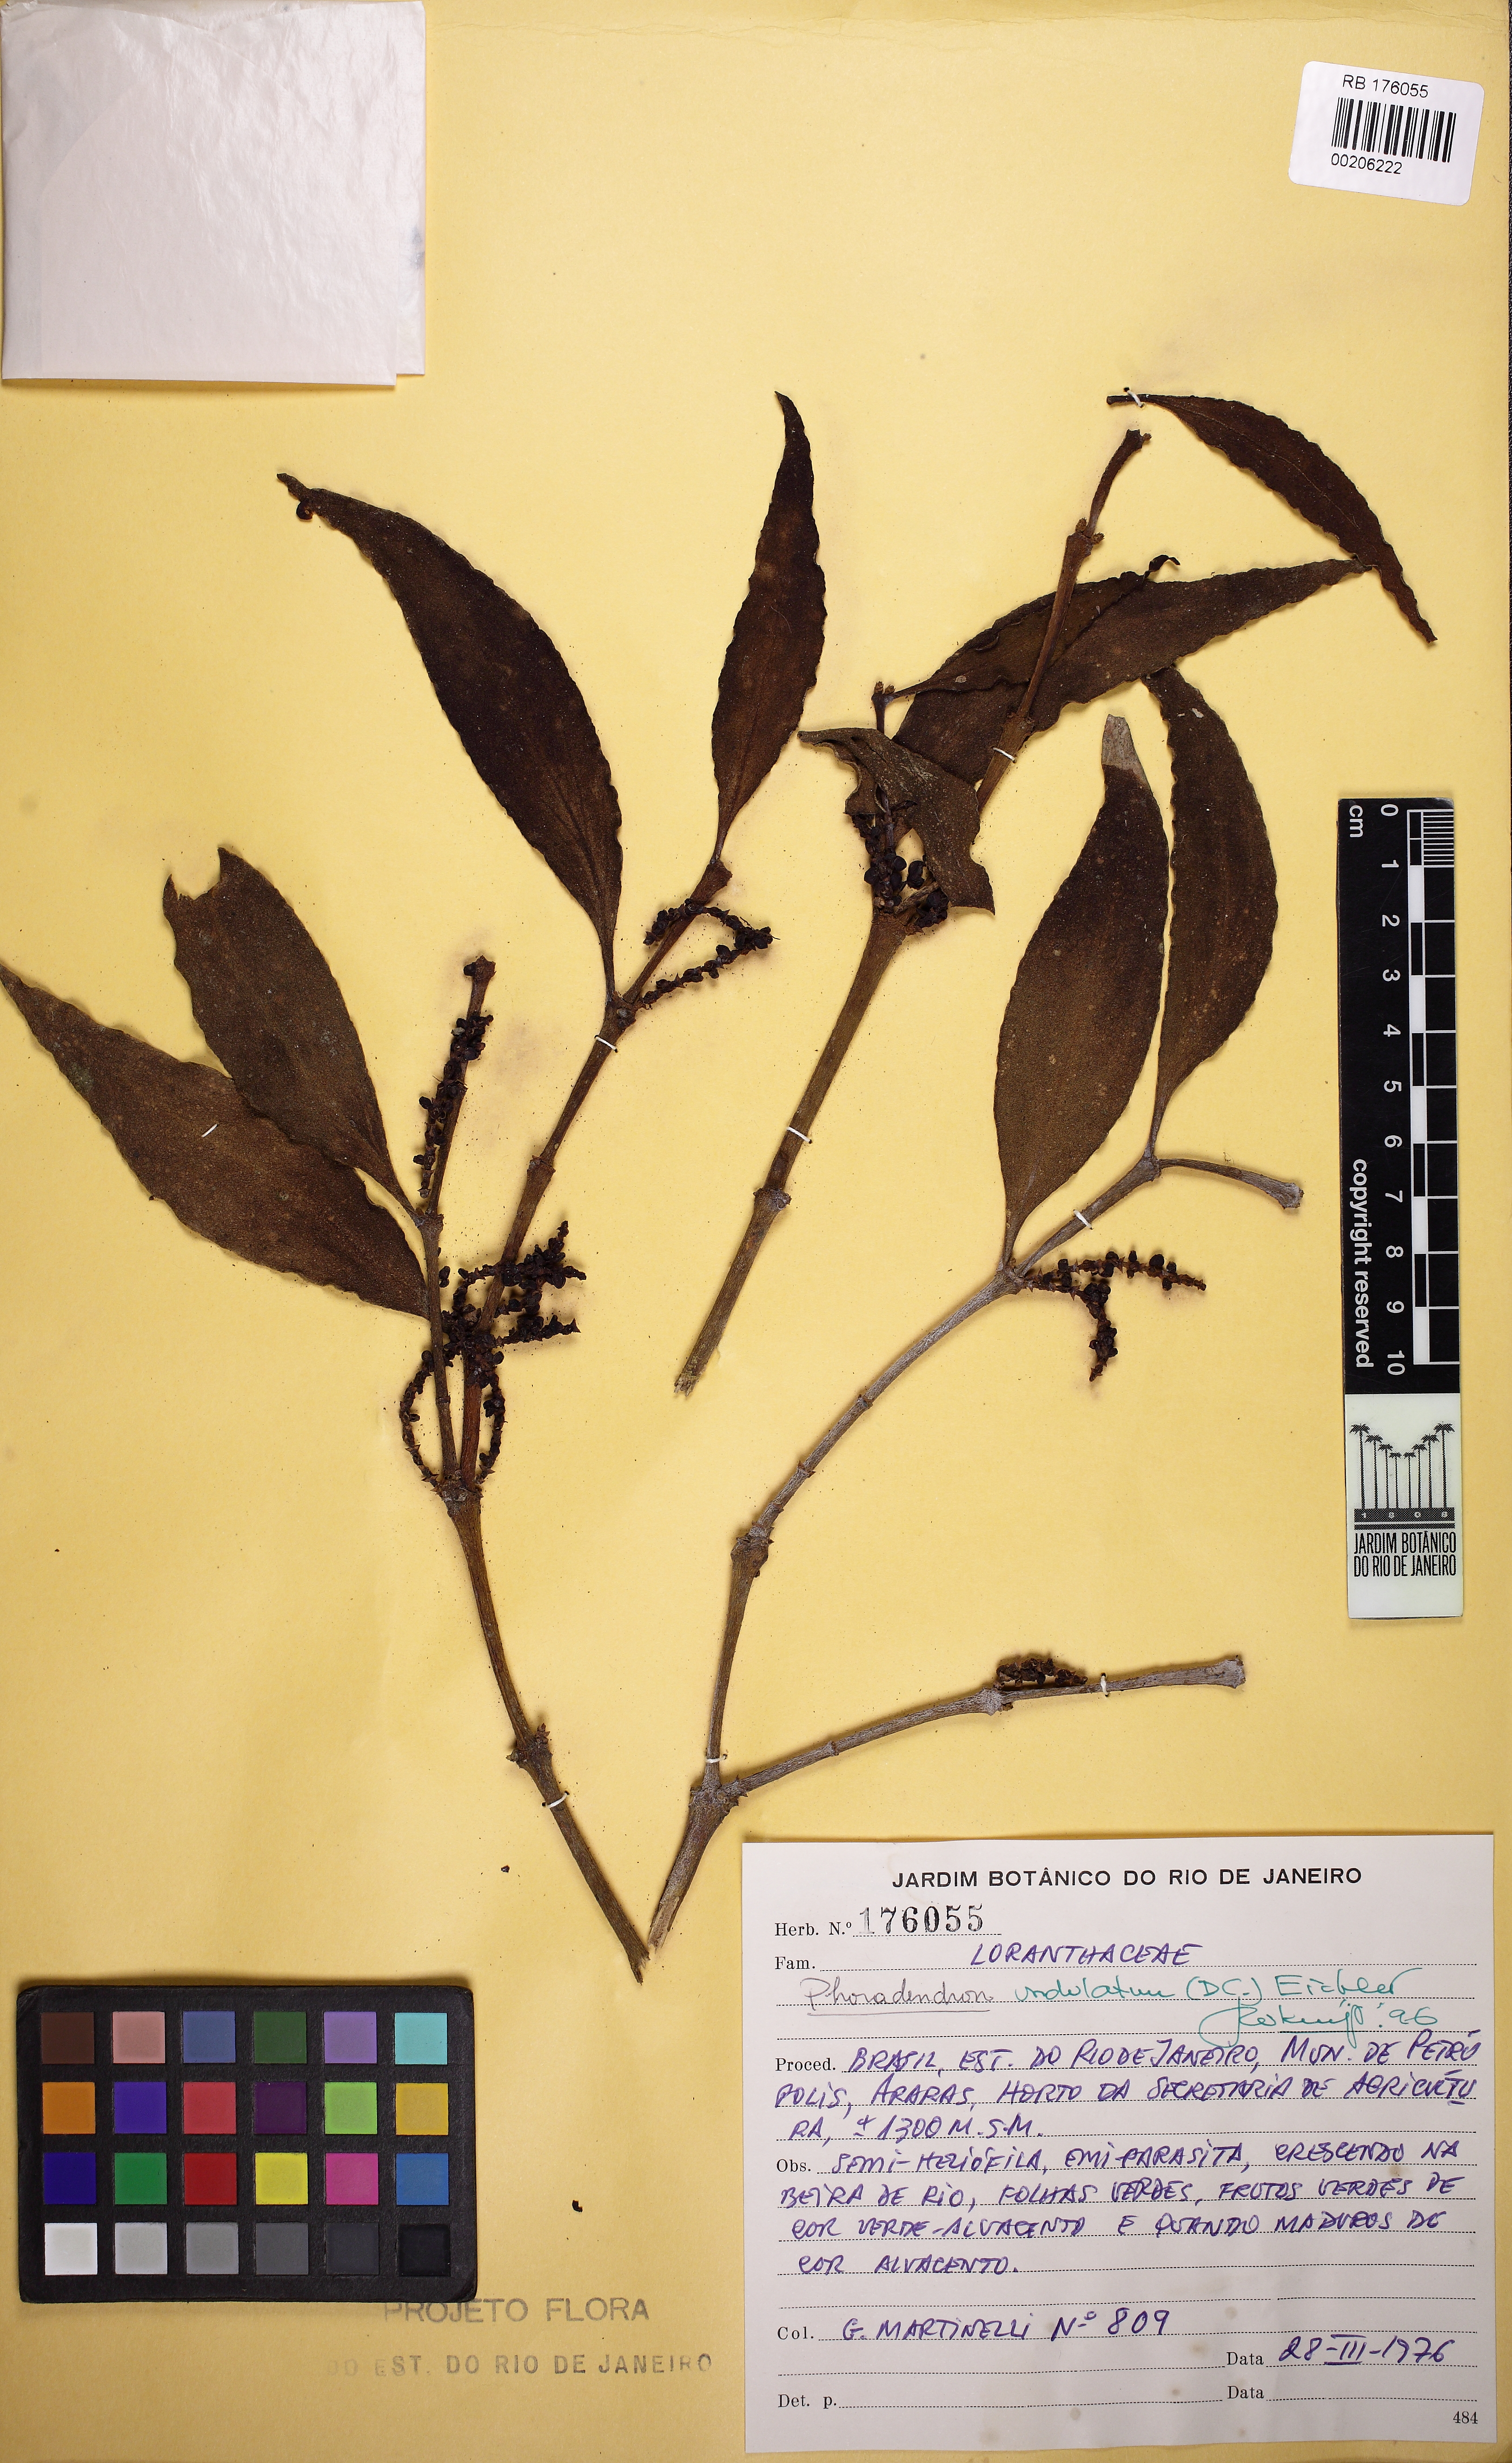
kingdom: Plantae
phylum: Tracheophyta
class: Magnoliopsida
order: Santalales
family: Viscaceae
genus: Phoradendron
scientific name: Phoradendron undulatum
